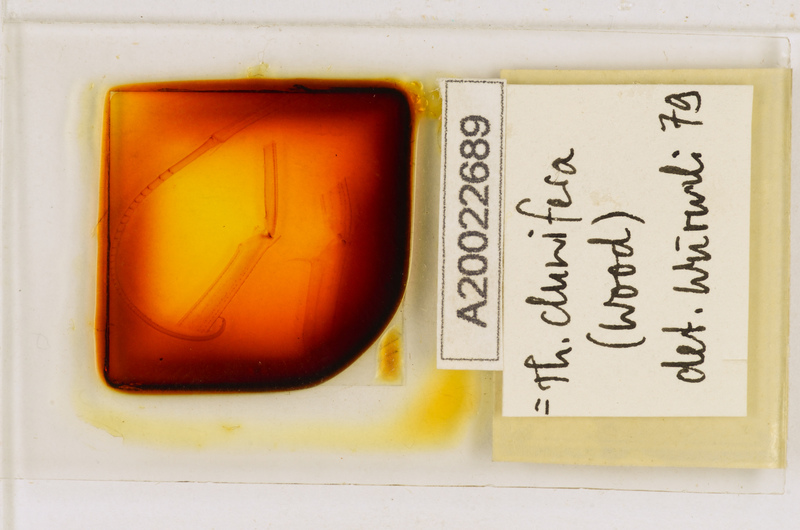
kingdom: Animalia
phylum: Arthropoda
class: Chilopoda
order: Scutigeromorpha
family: Scutigeridae
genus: Thereuopoda
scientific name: Thereuopoda clunifera
